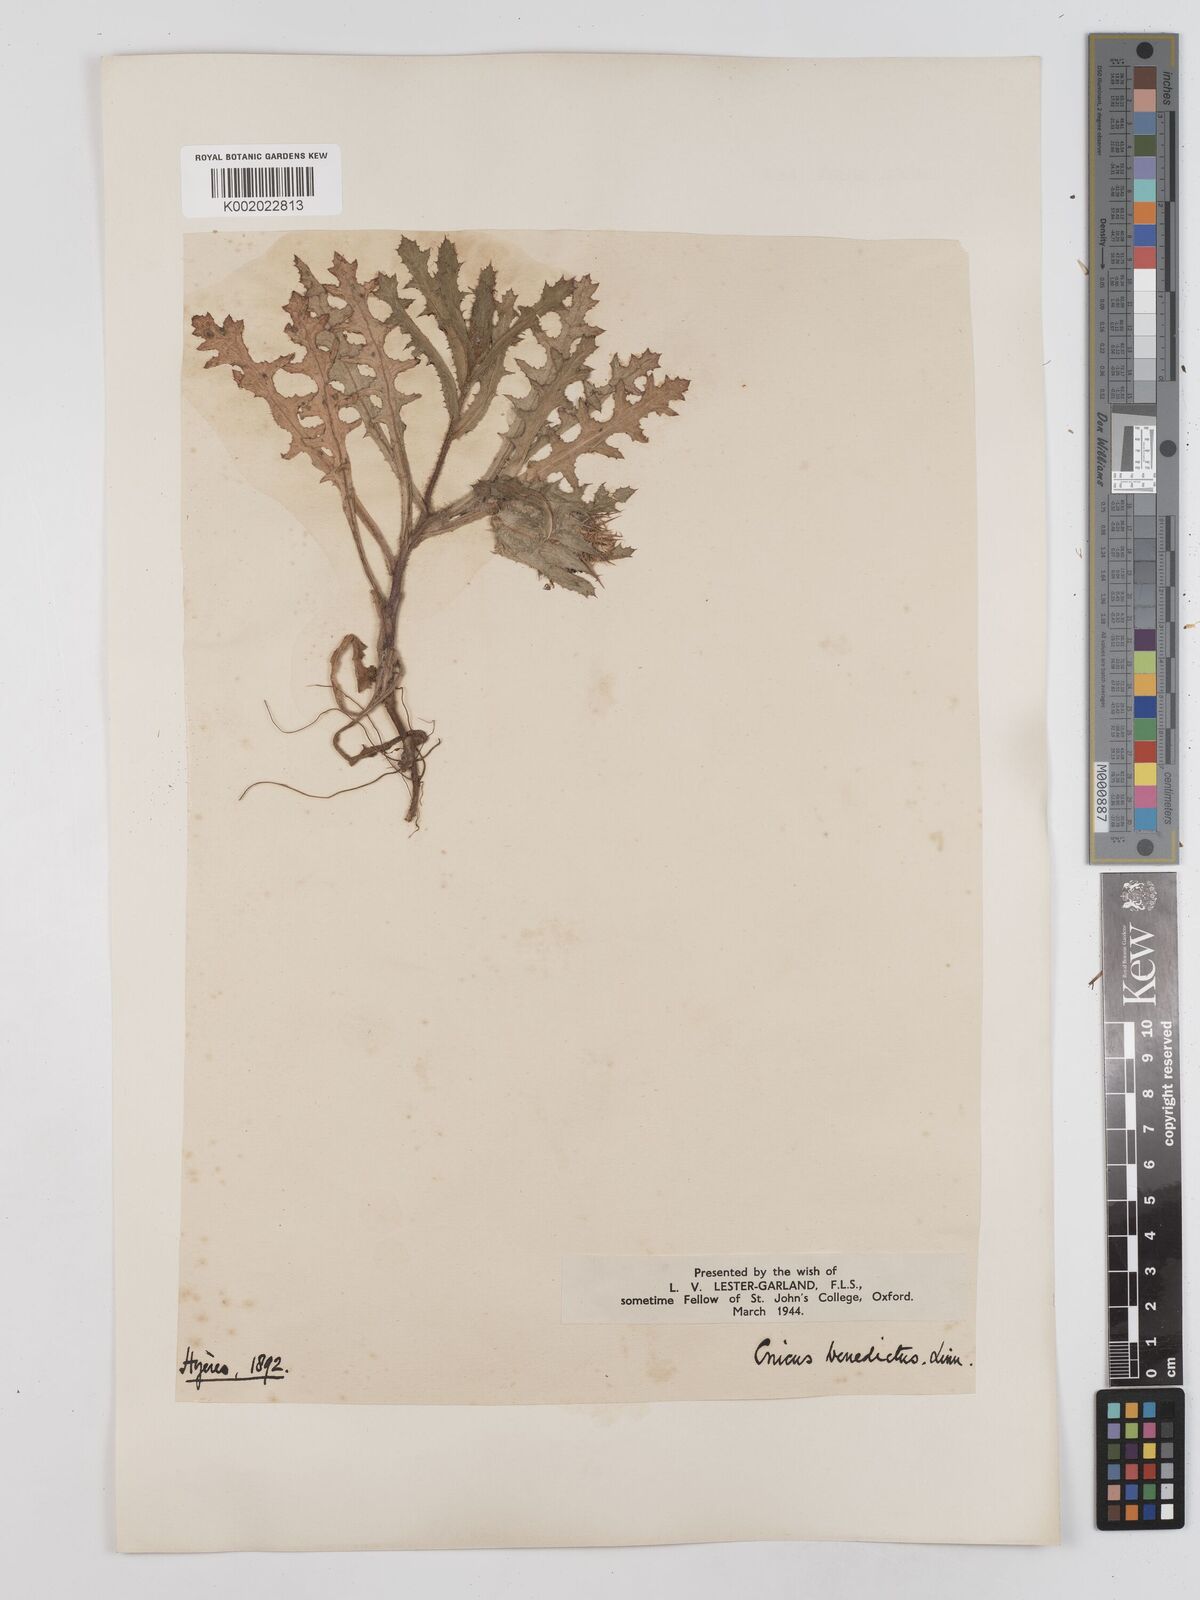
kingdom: Plantae
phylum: Tracheophyta
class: Magnoliopsida
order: Asterales
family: Asteraceae
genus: Centaurea
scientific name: Centaurea benedicta
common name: Blessed thistle
